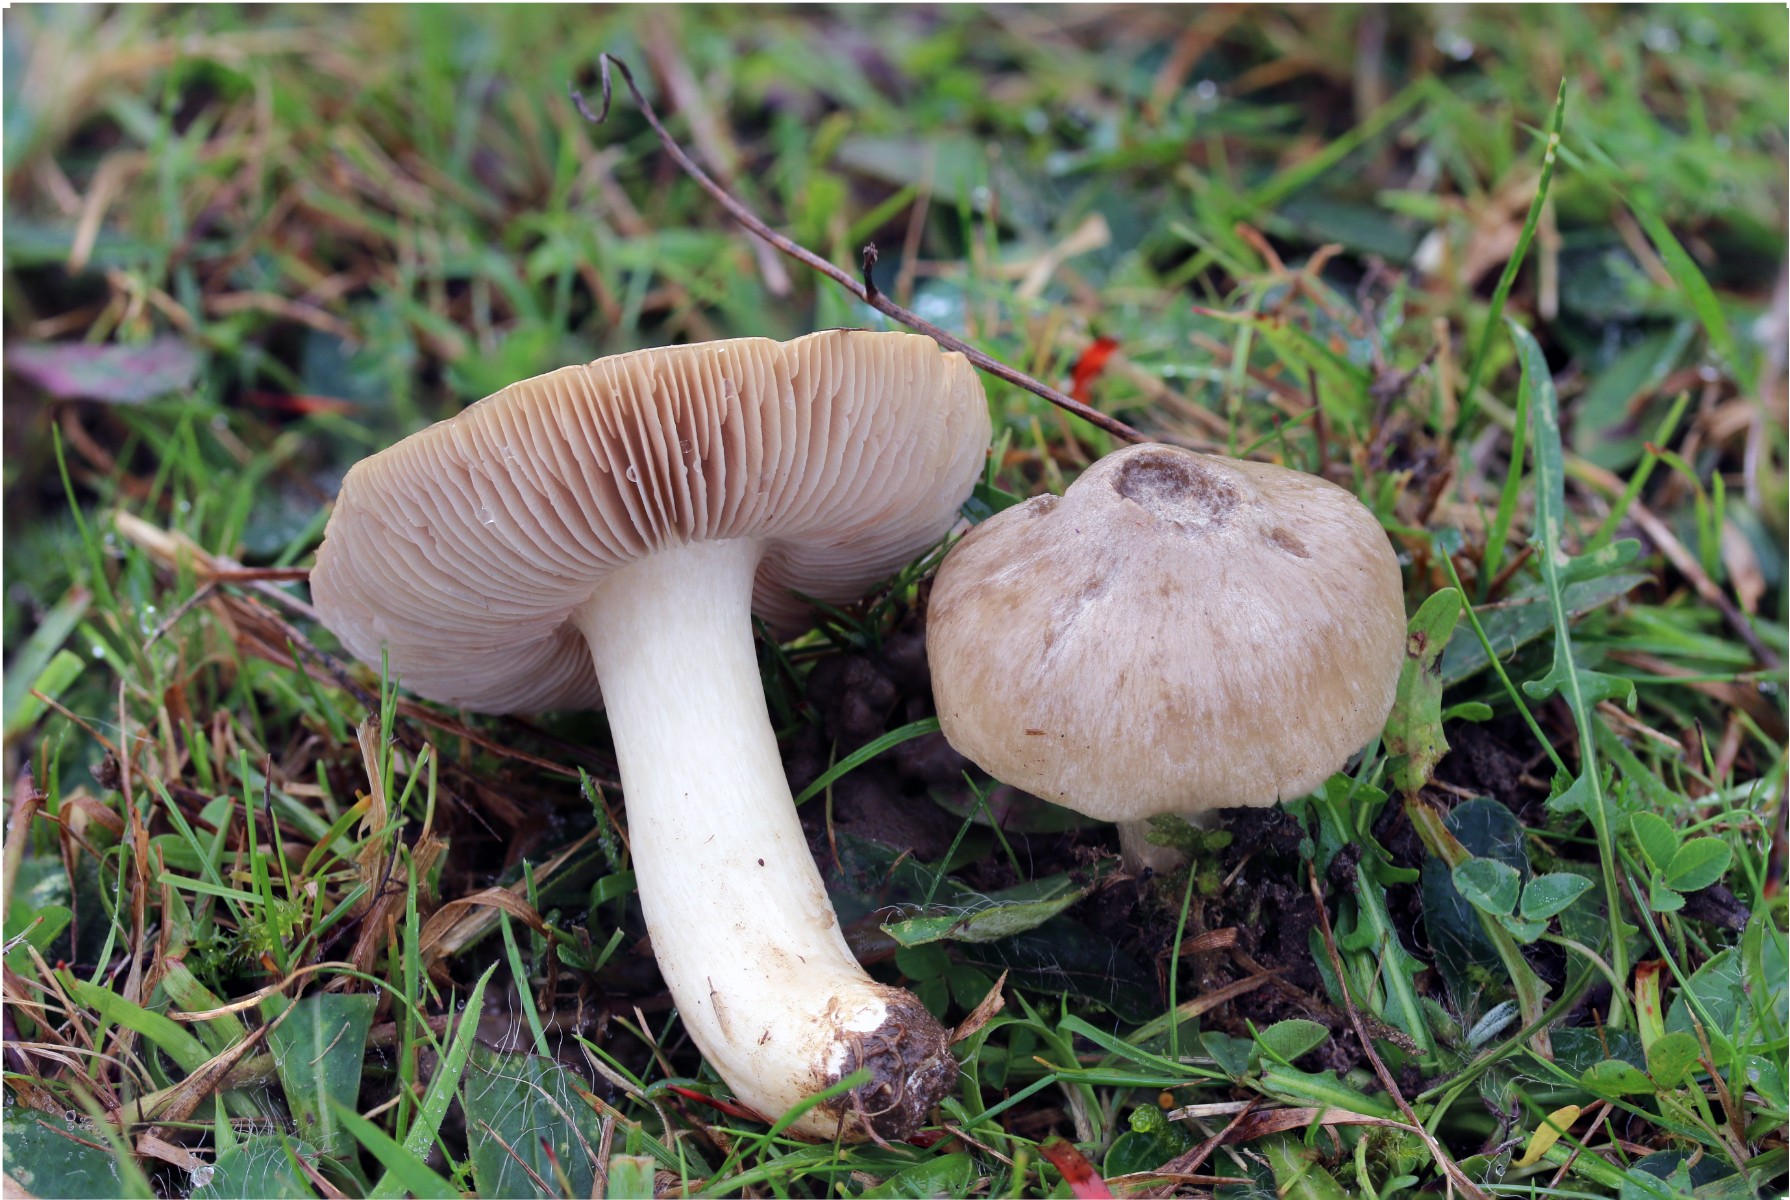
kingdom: Fungi
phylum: Basidiomycota
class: Agaricomycetes
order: Agaricales
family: Entolomataceae
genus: Entoloma
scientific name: Entoloma prunuloides
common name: mel-rødblad
